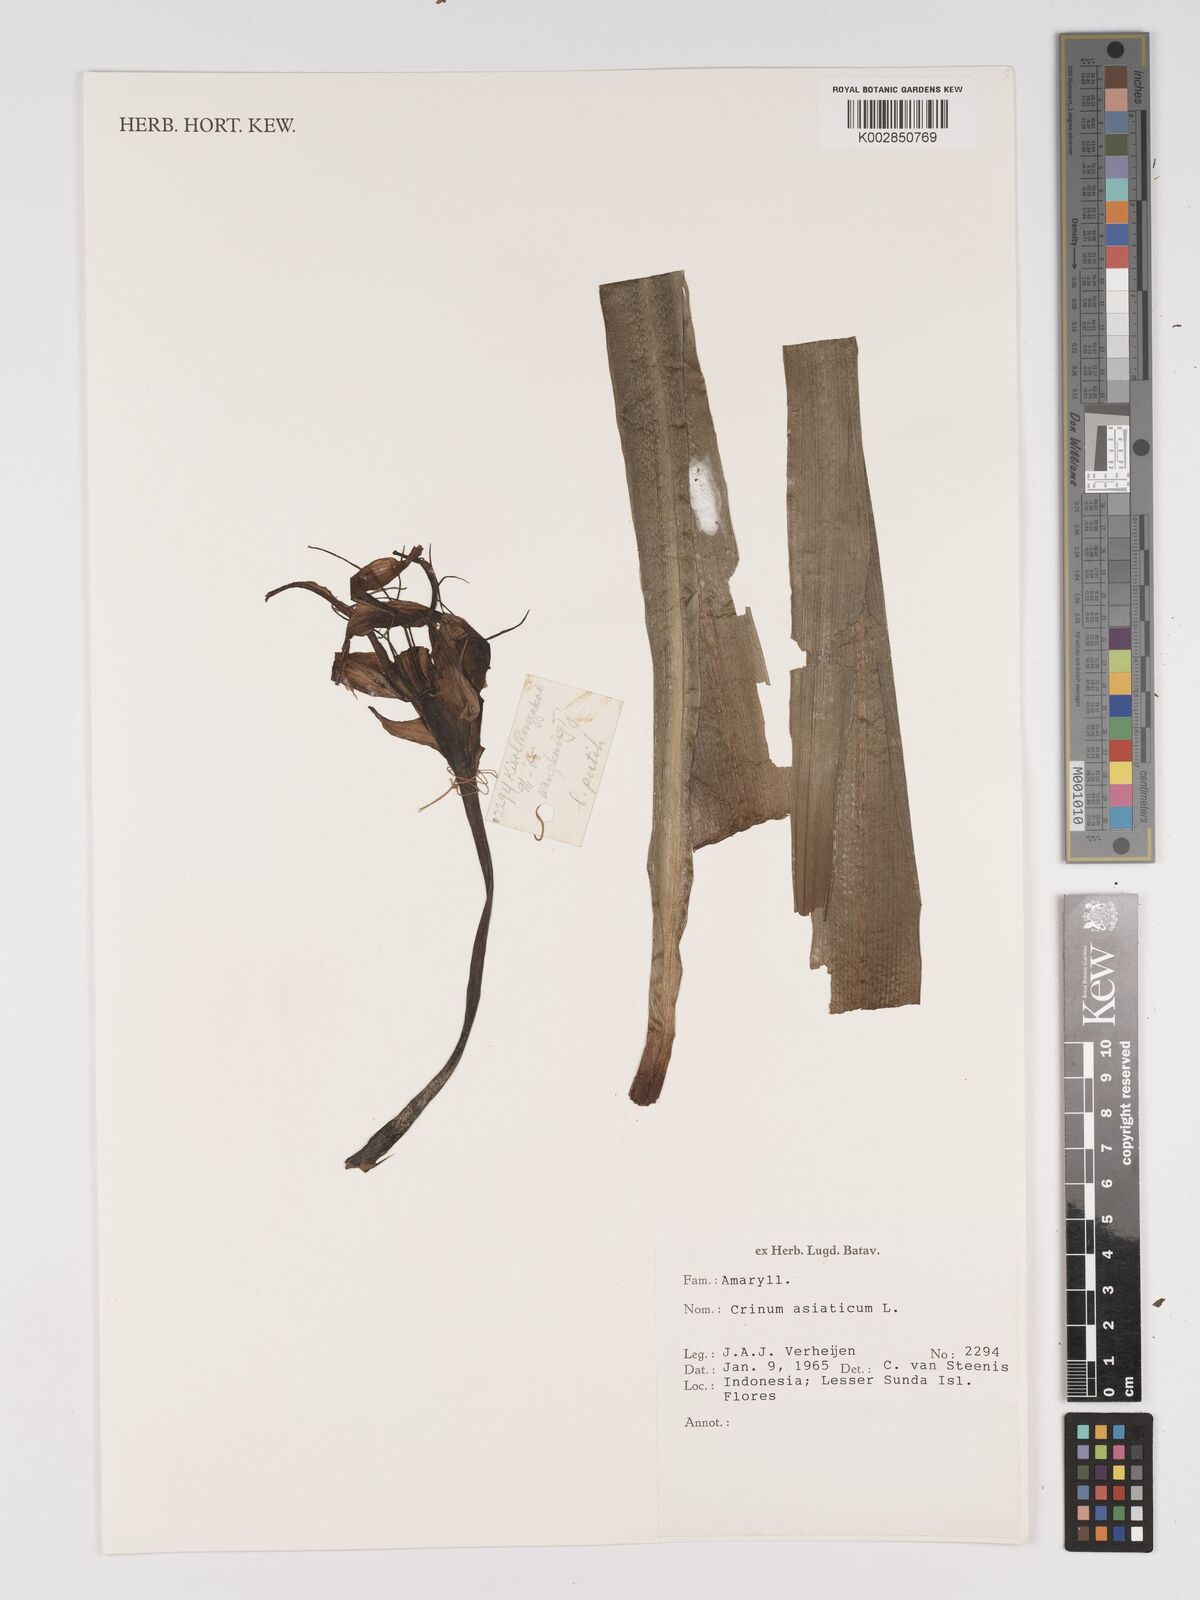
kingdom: Plantae
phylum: Tracheophyta
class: Liliopsida
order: Asparagales
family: Amaryllidaceae
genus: Crinum
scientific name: Crinum asiaticum
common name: Poisonbulb
